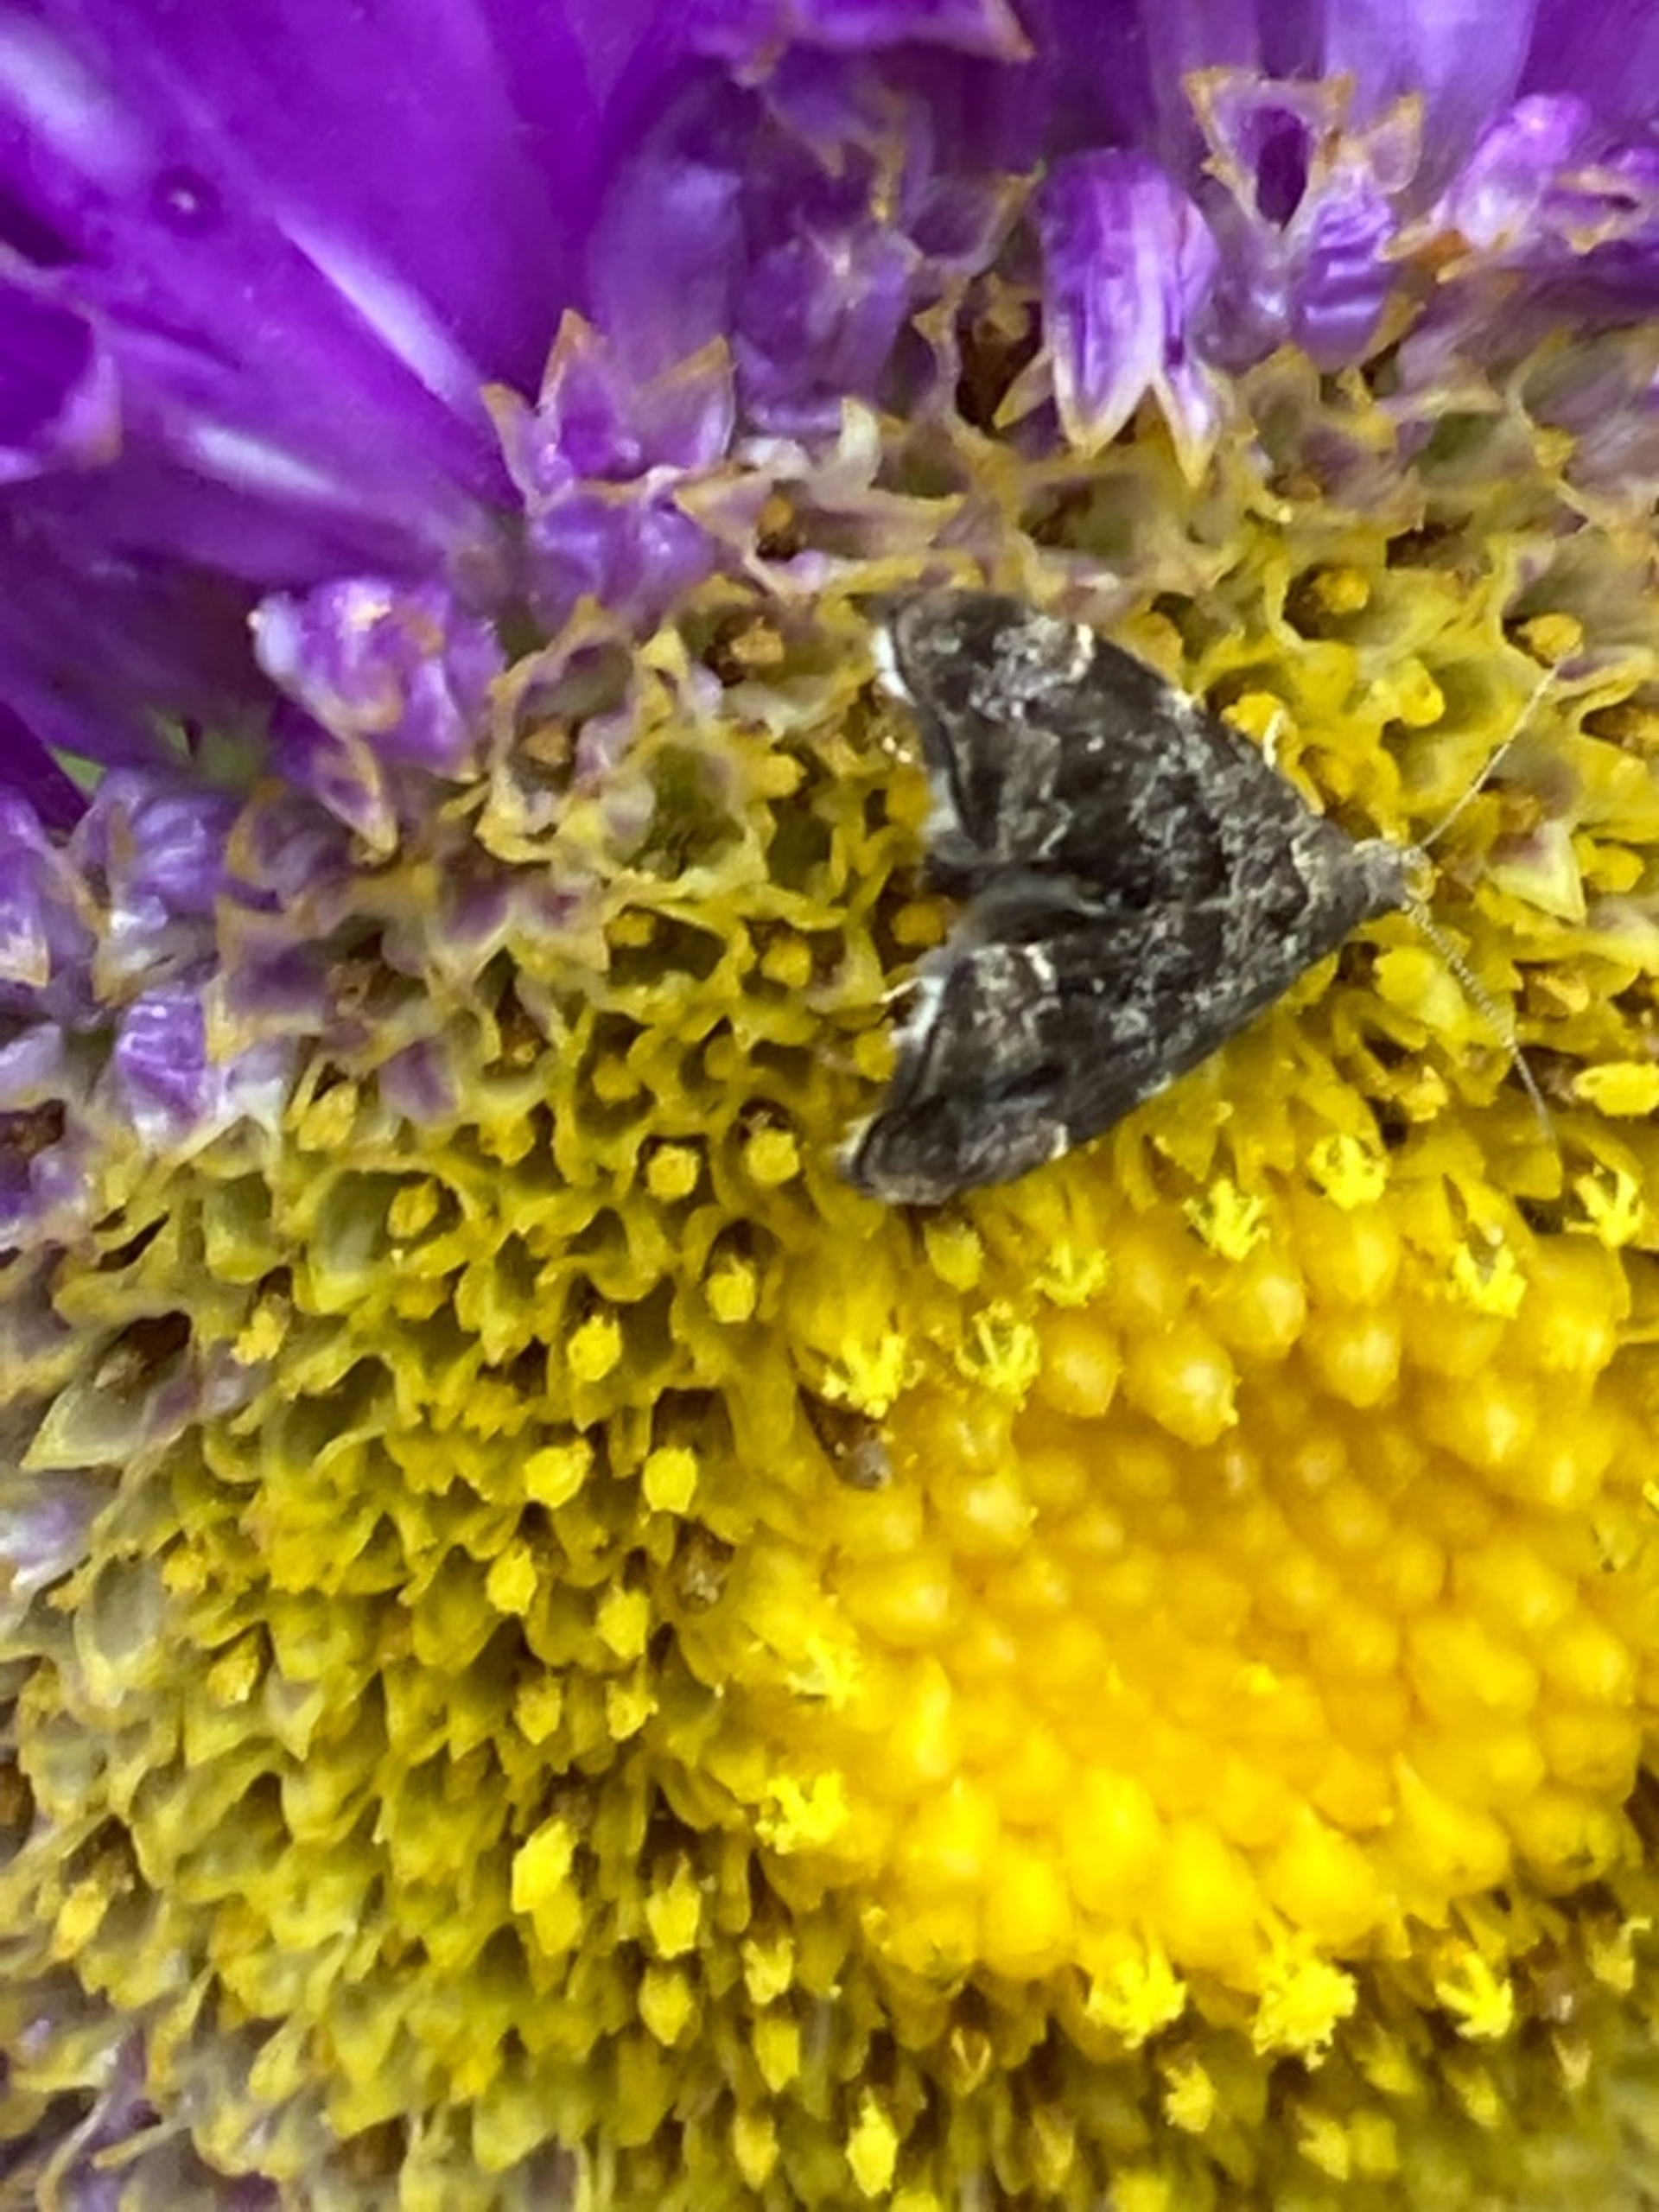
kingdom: Animalia
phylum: Arthropoda
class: Insecta
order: Lepidoptera
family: Choreutidae
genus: Anthophila
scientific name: Anthophila fabriciana
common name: Bredvinget nældevikler
